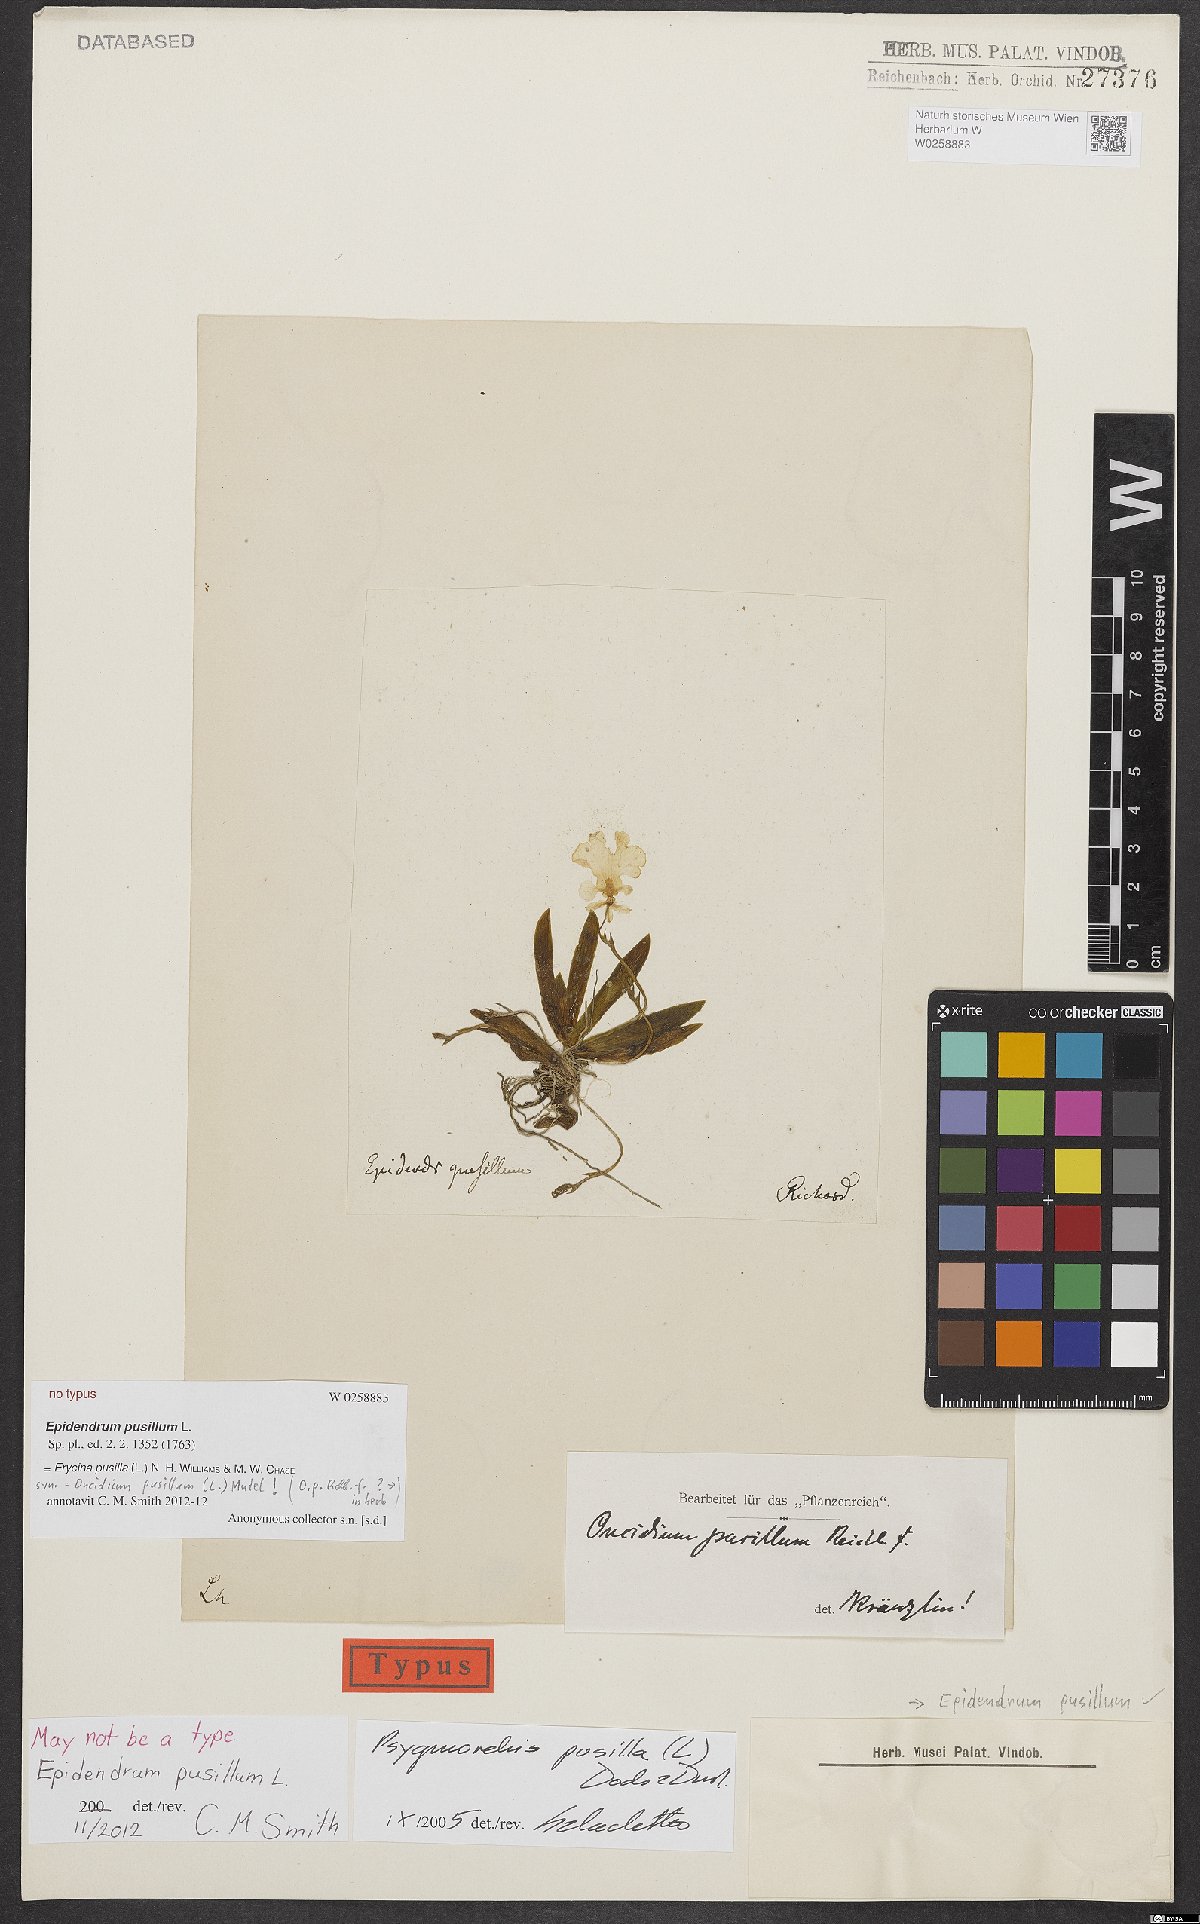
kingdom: Plantae
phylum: Tracheophyta
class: Liliopsida
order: Asparagales
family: Orchidaceae
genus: Erycina
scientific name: Erycina pusilla
